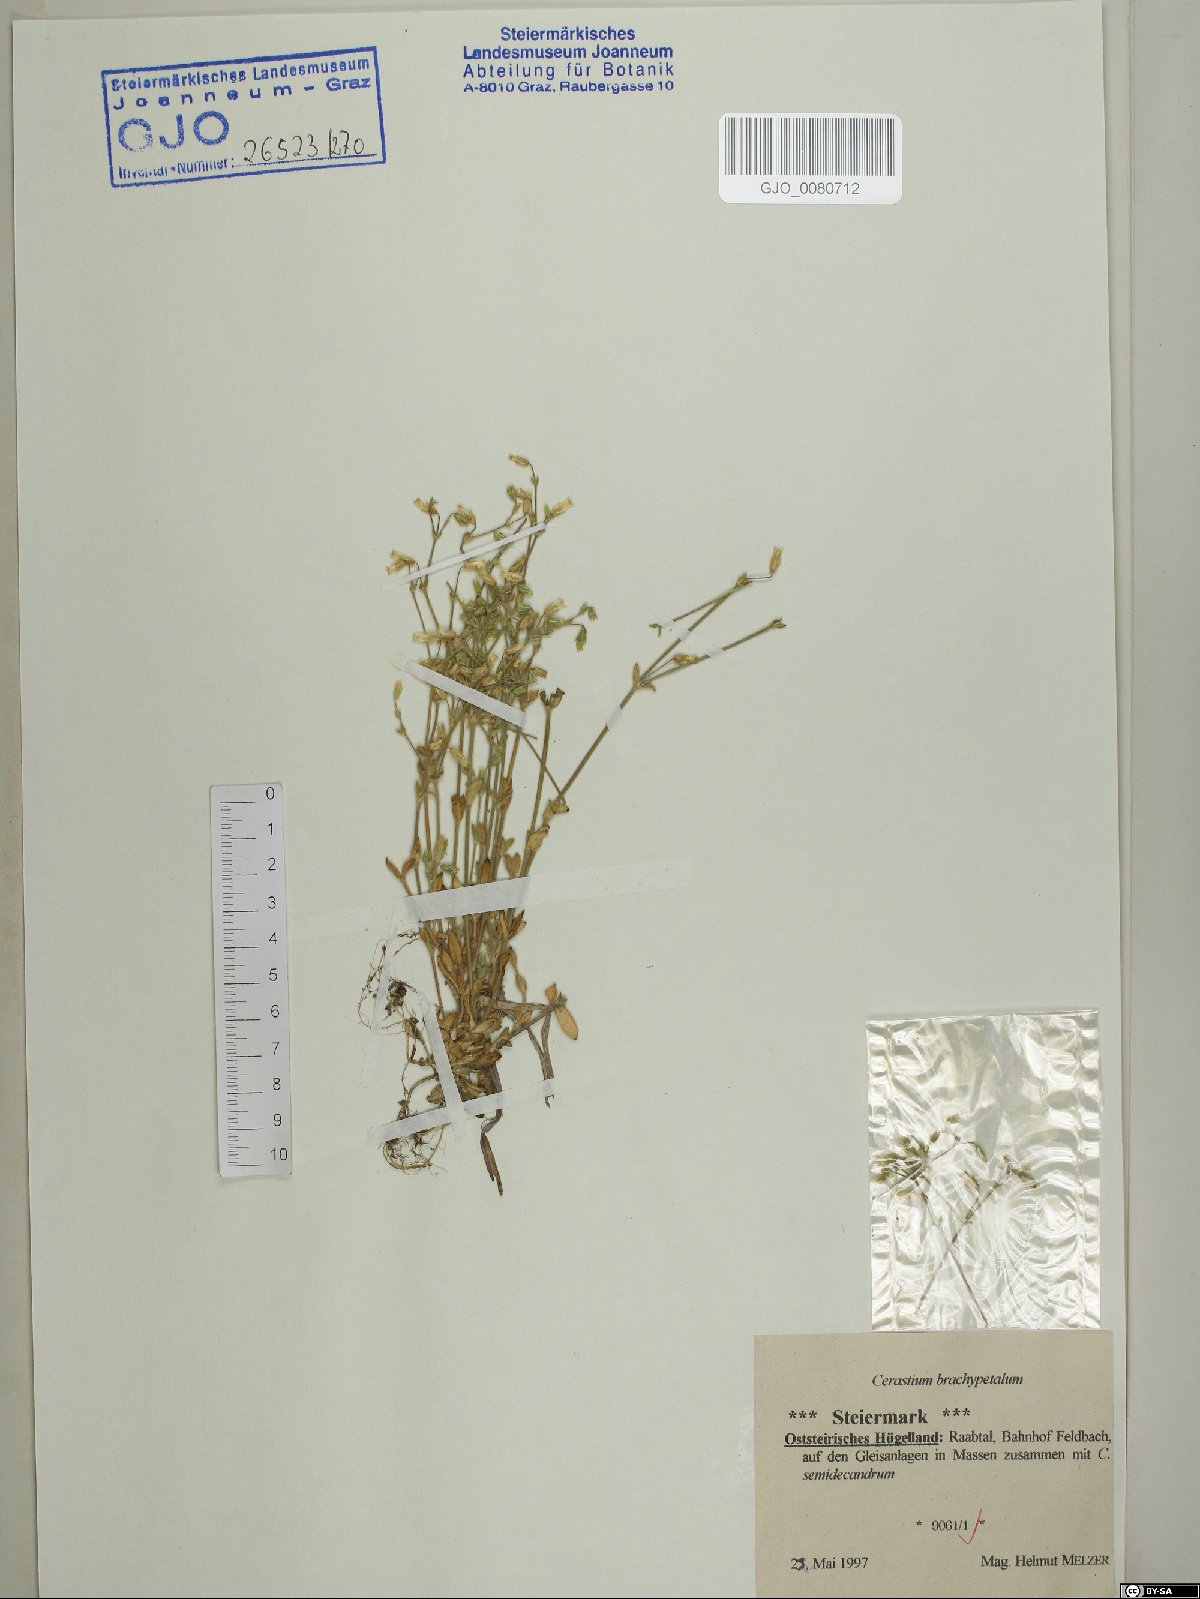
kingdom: Plantae
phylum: Tracheophyta
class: Magnoliopsida
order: Caryophyllales
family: Caryophyllaceae
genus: Cerastium
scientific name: Cerastium brachypetalum
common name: Grey mouse-ear
